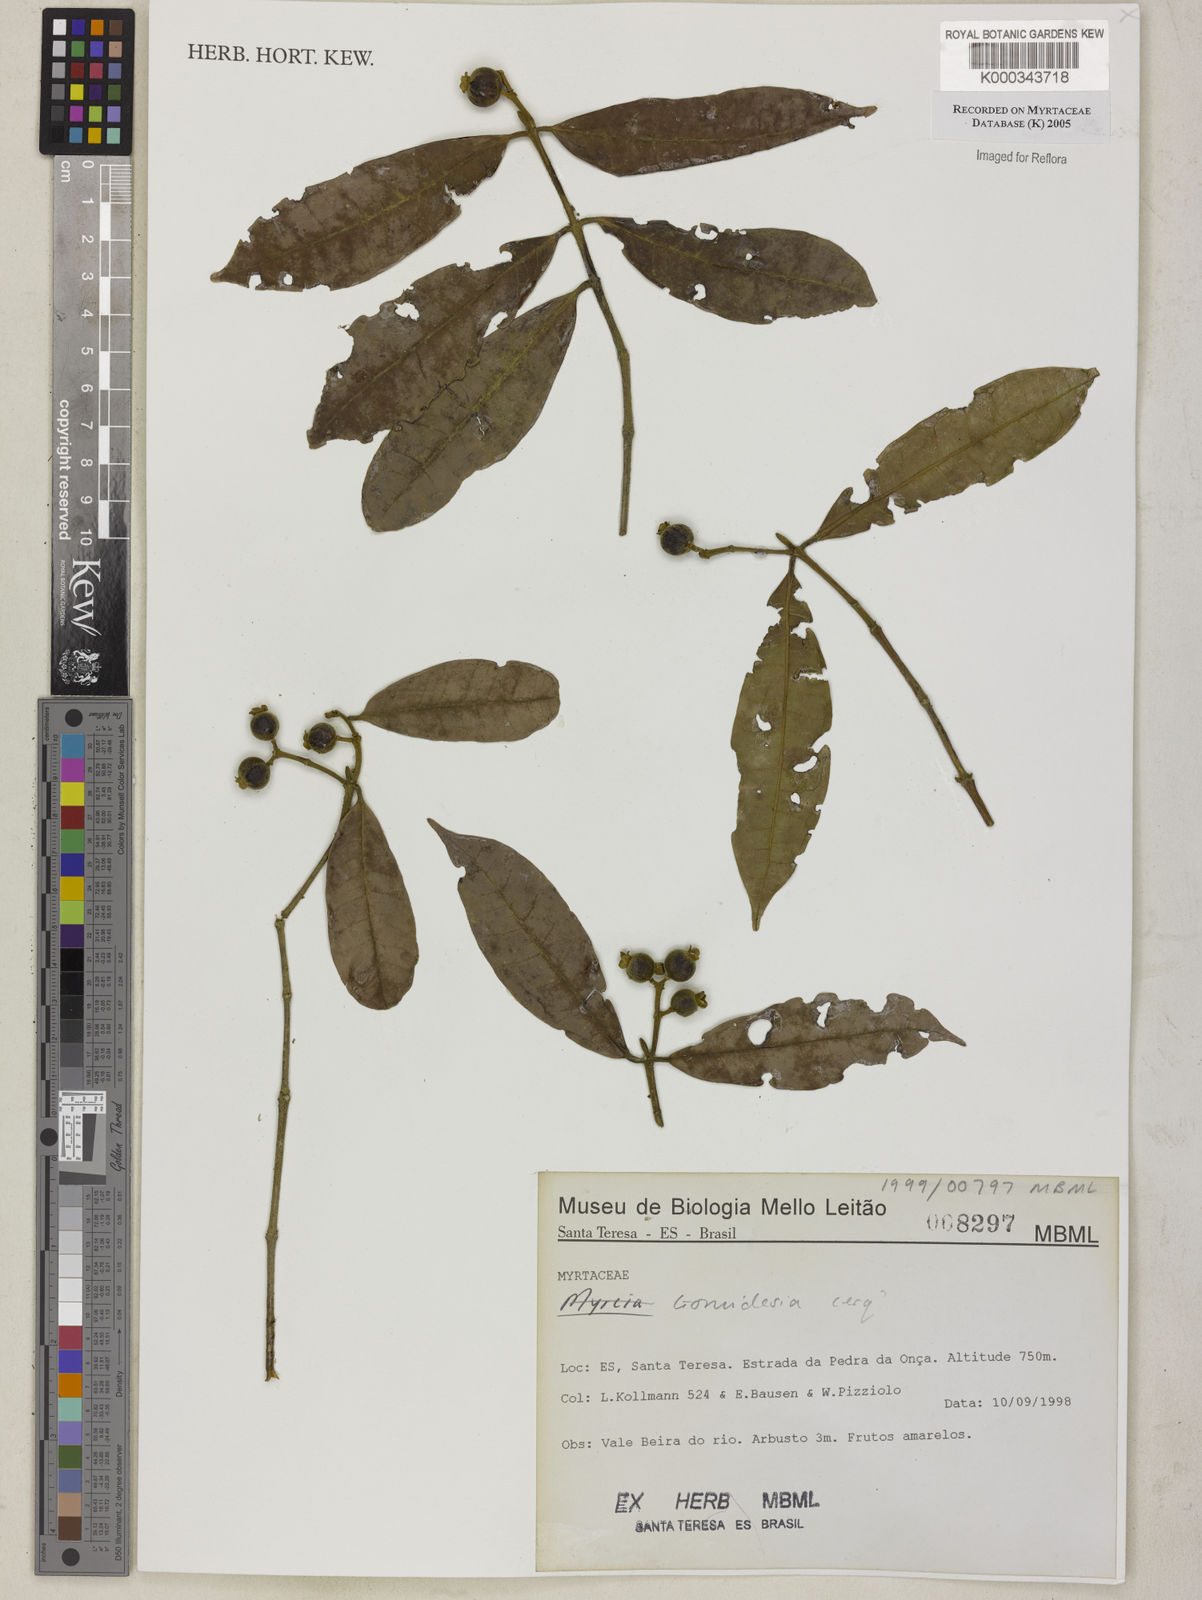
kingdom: Plantae
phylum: Tracheophyta
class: Magnoliopsida
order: Myrtales
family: Myrtaceae
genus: Myrcia
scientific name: Myrcia
